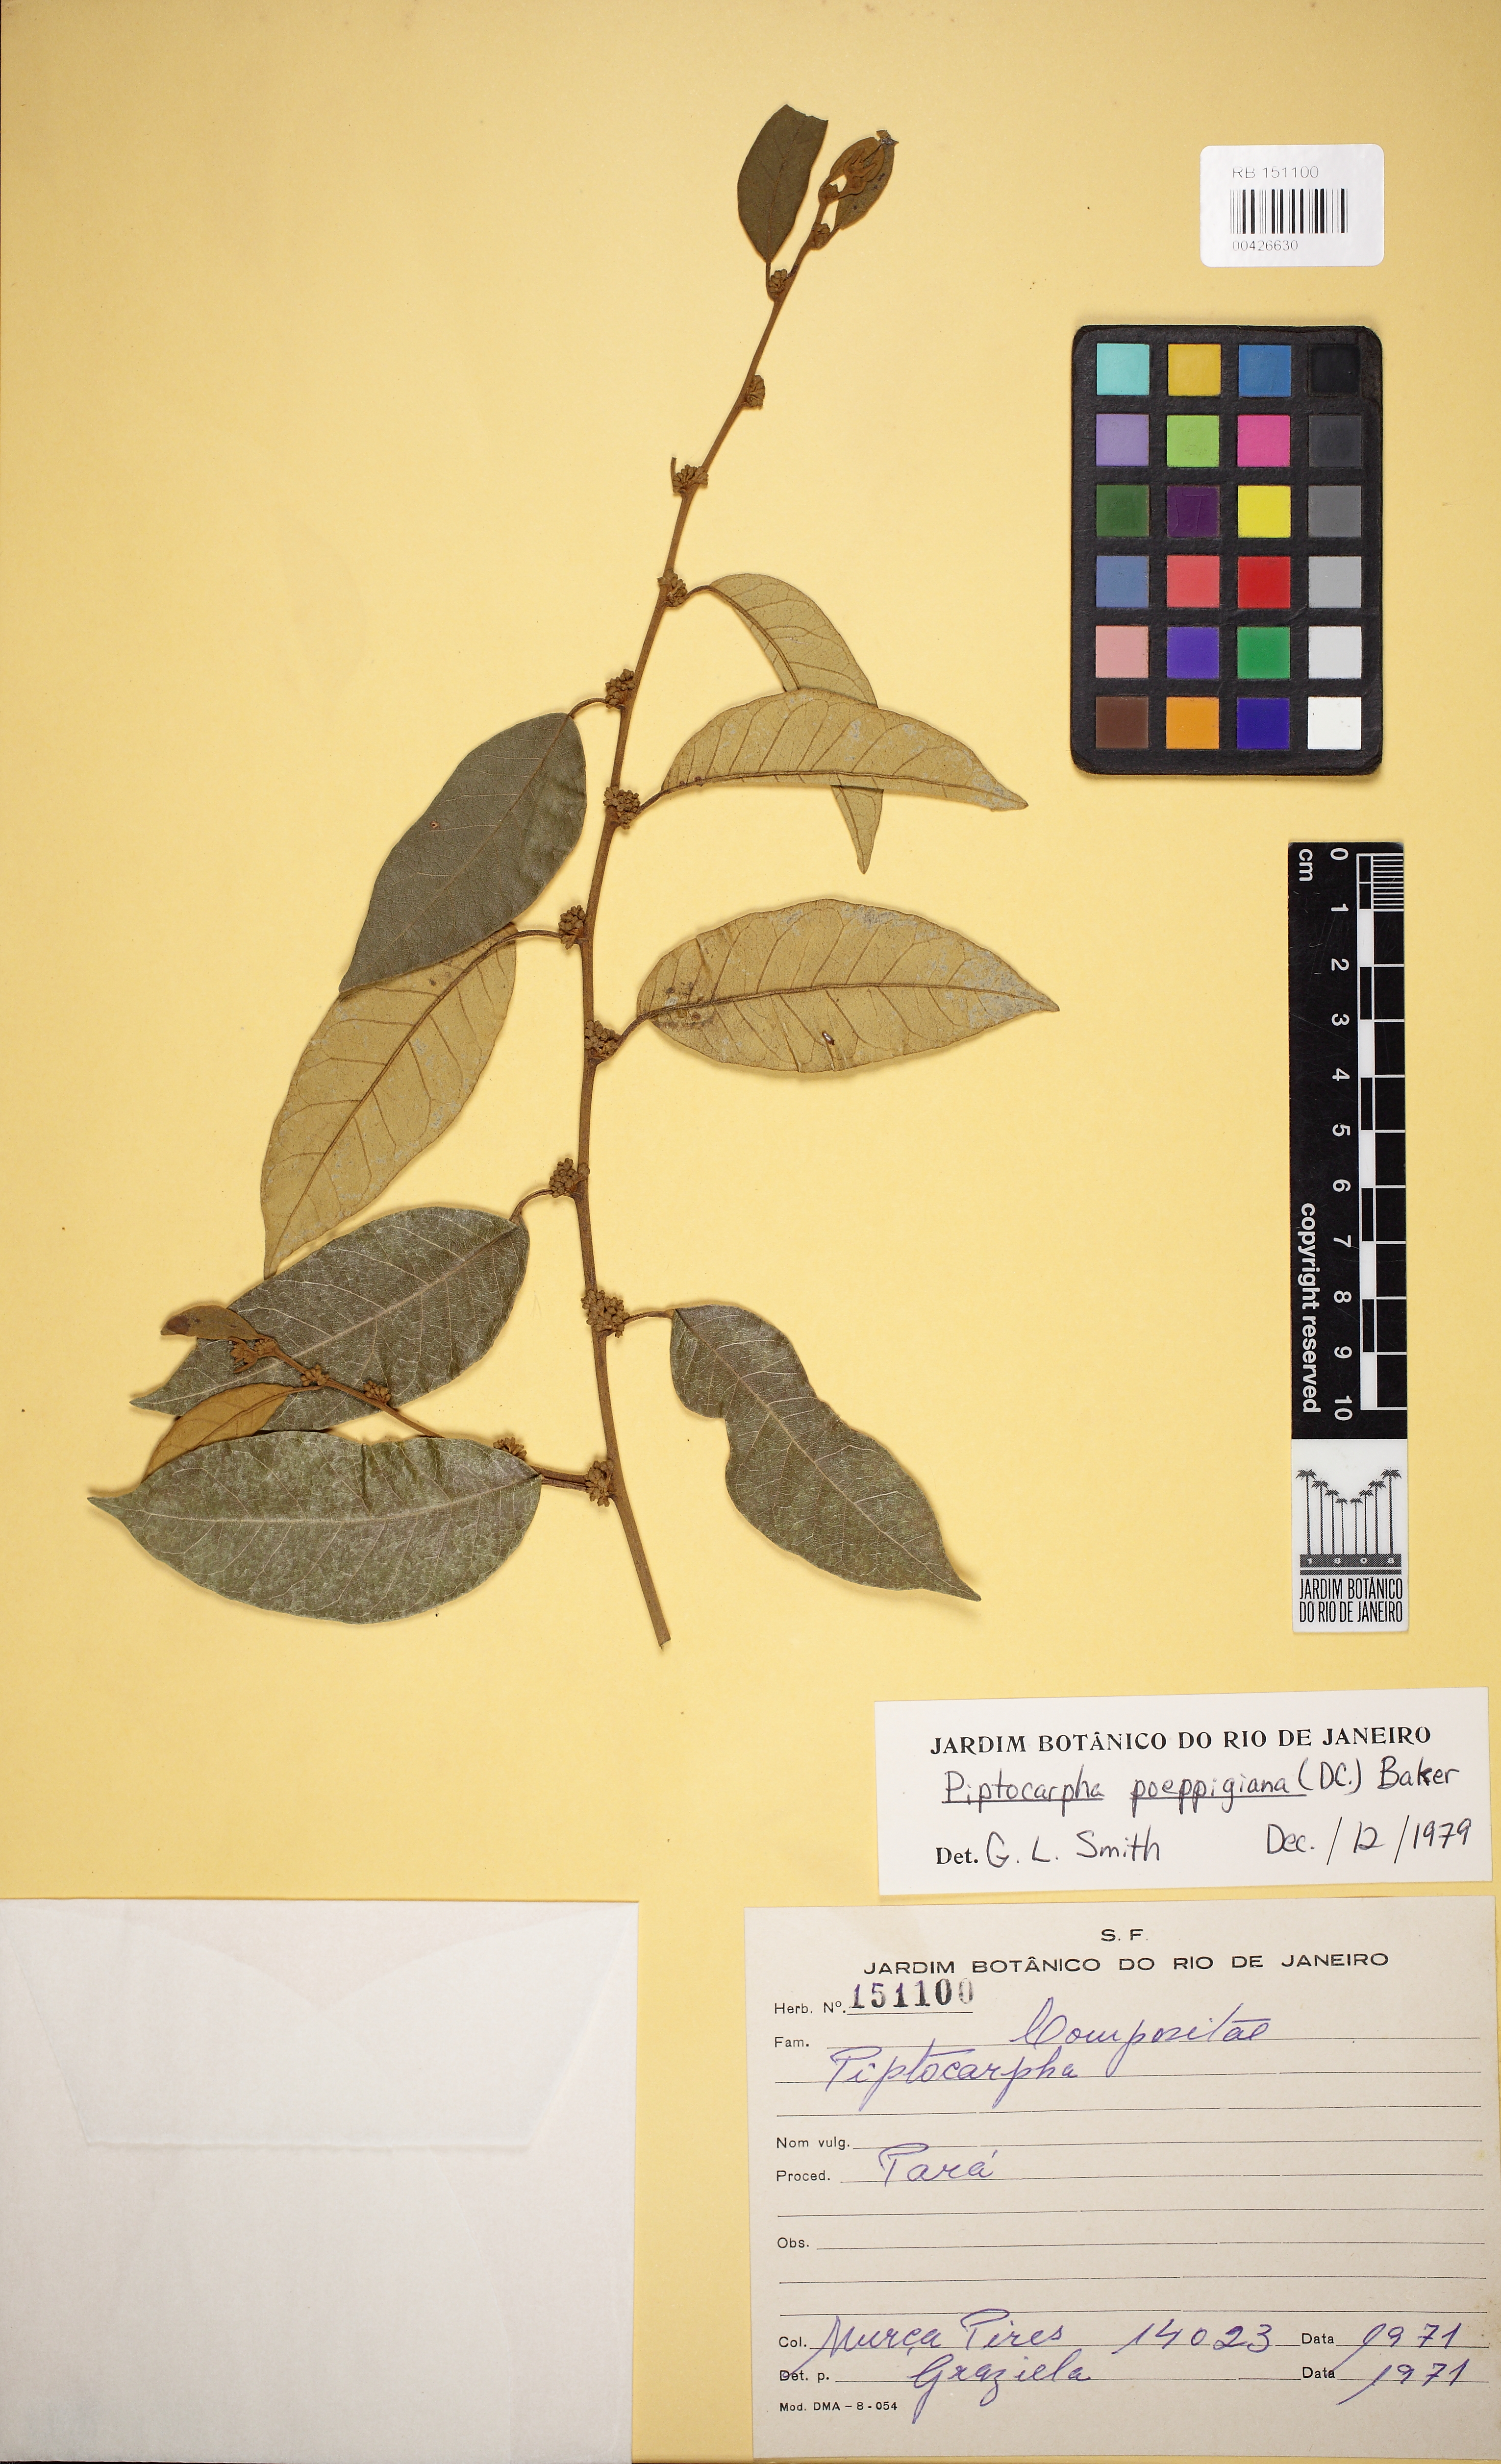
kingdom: Plantae
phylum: Tracheophyta
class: Magnoliopsida
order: Asterales
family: Asteraceae
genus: Piptocarpha
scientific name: Piptocarpha opaca
